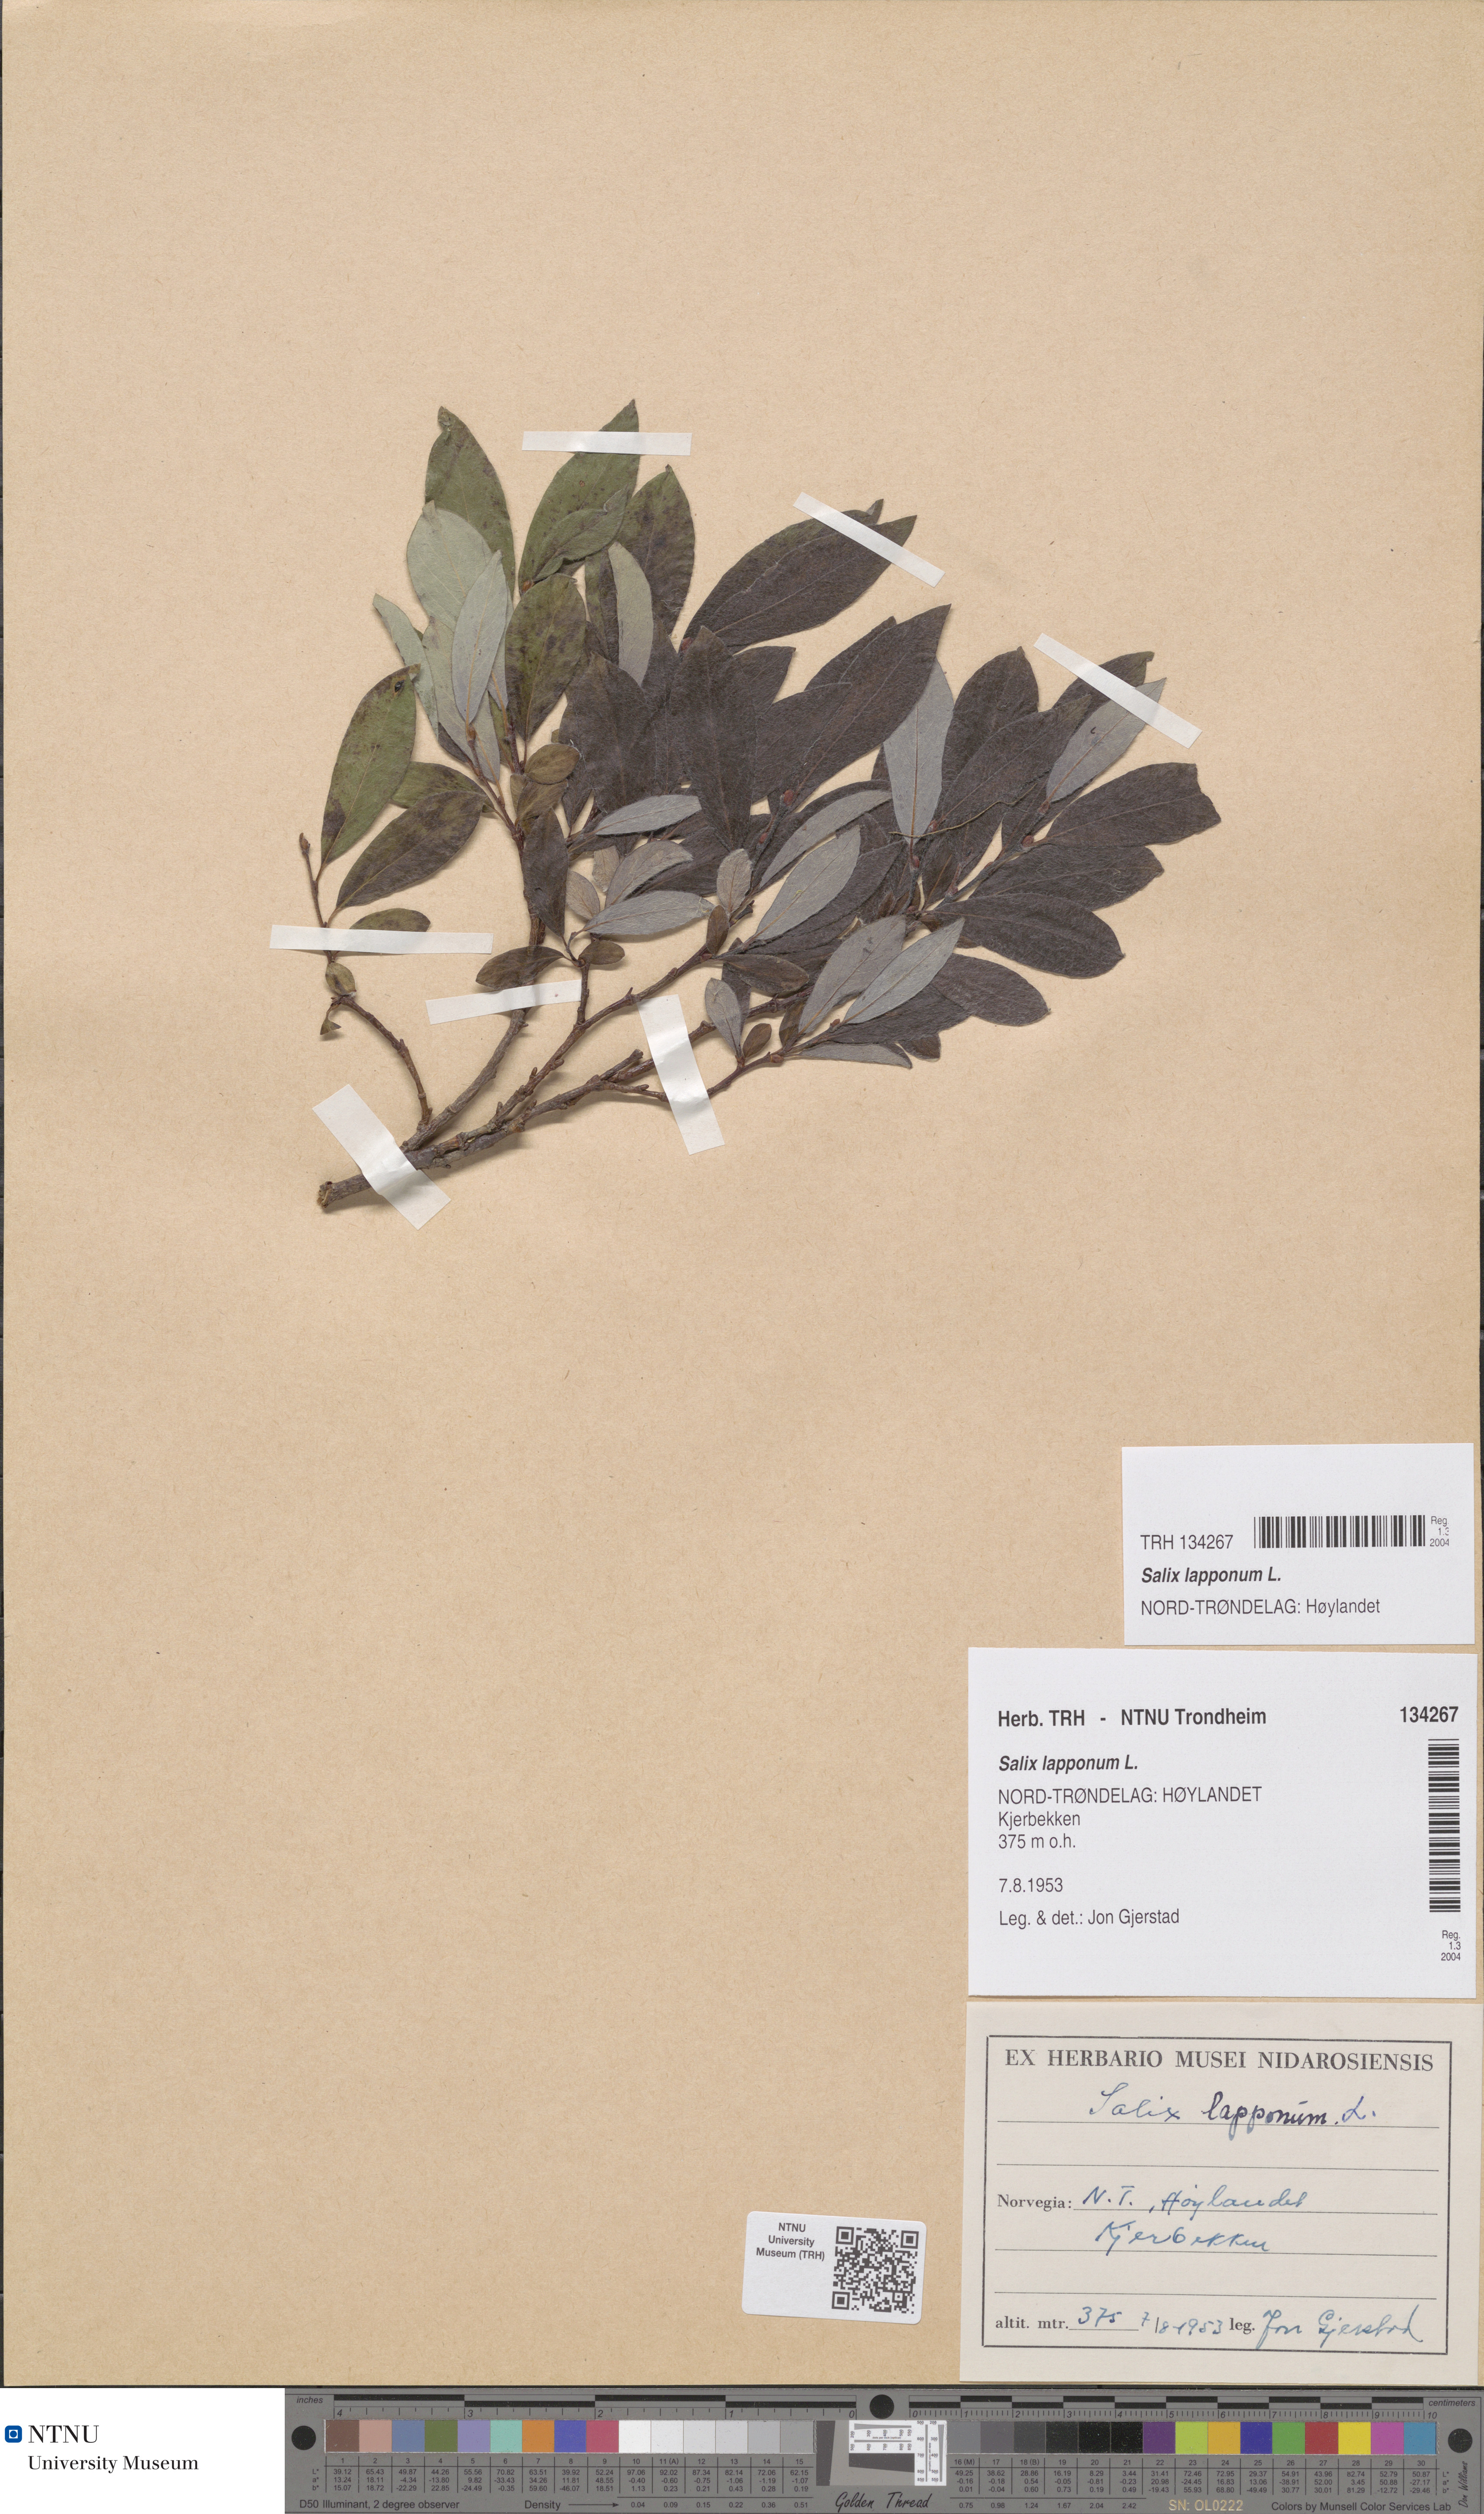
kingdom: Plantae
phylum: Tracheophyta
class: Magnoliopsida
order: Malpighiales
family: Salicaceae
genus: Salix
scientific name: Salix lapponum
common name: Downy willow
